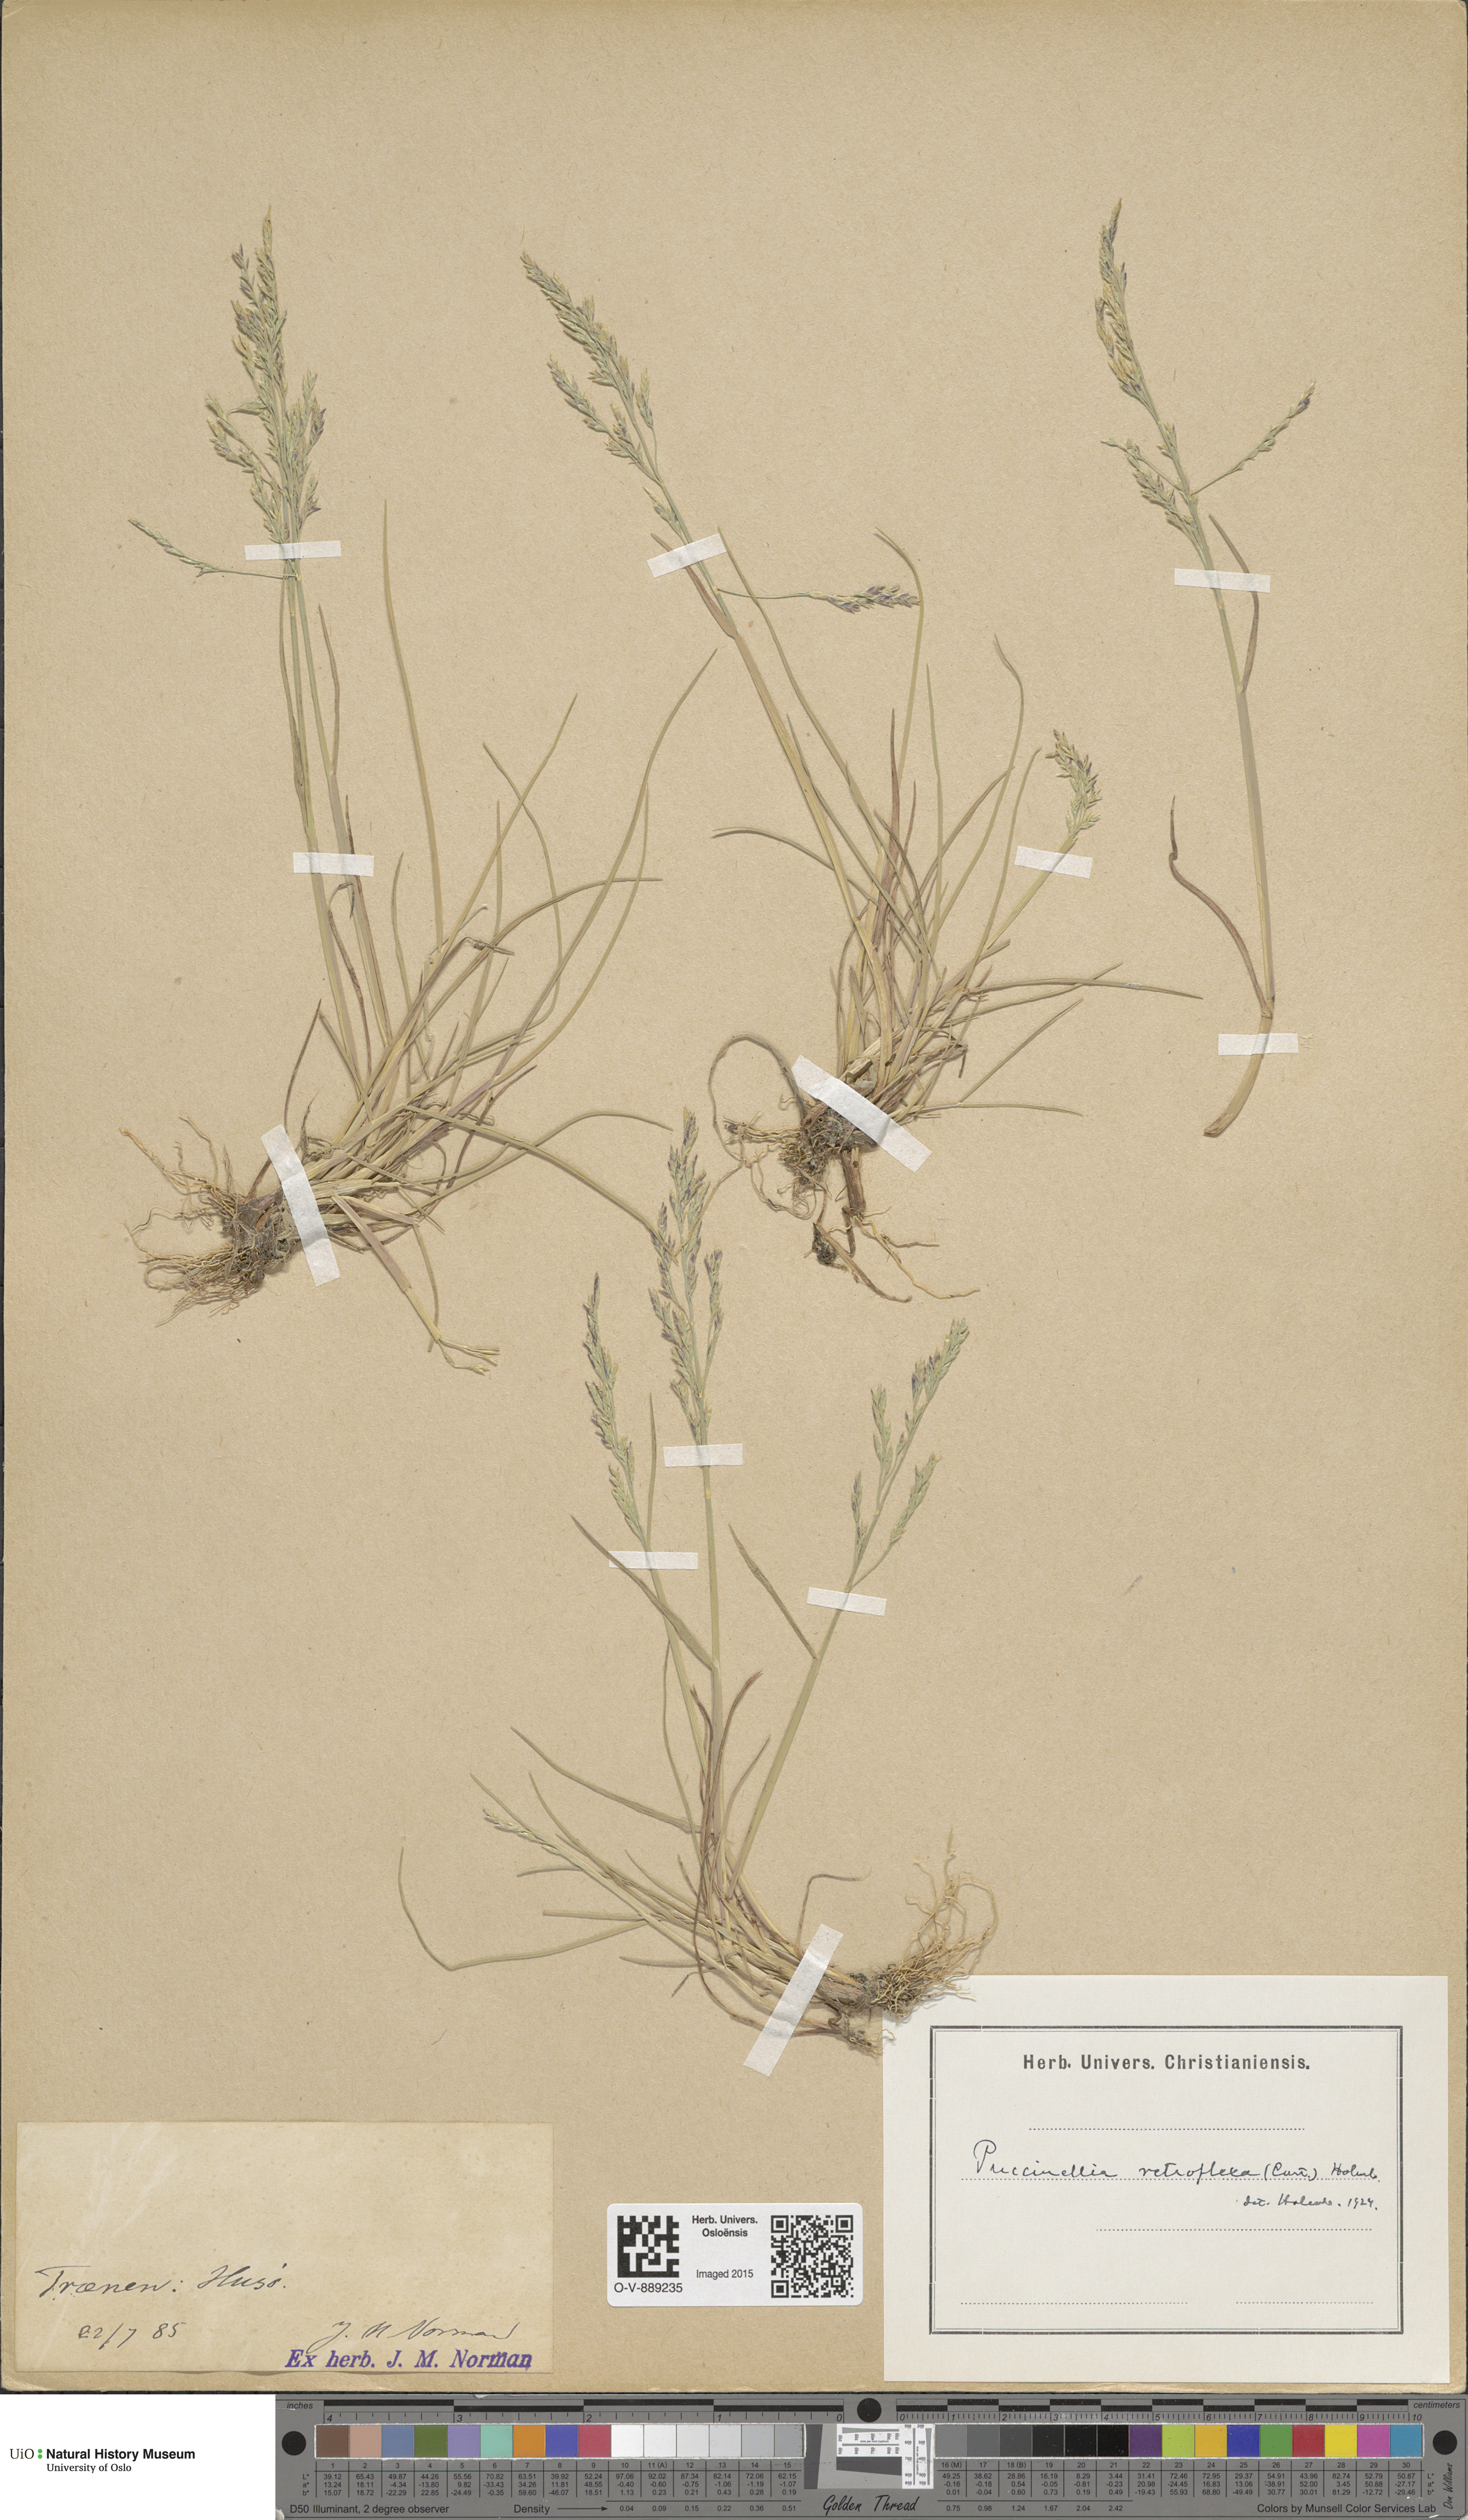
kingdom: Plantae
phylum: Tracheophyta
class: Liliopsida
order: Poales
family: Poaceae
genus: Puccinellia
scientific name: Puccinellia distans
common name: Weeping alkaligrass
